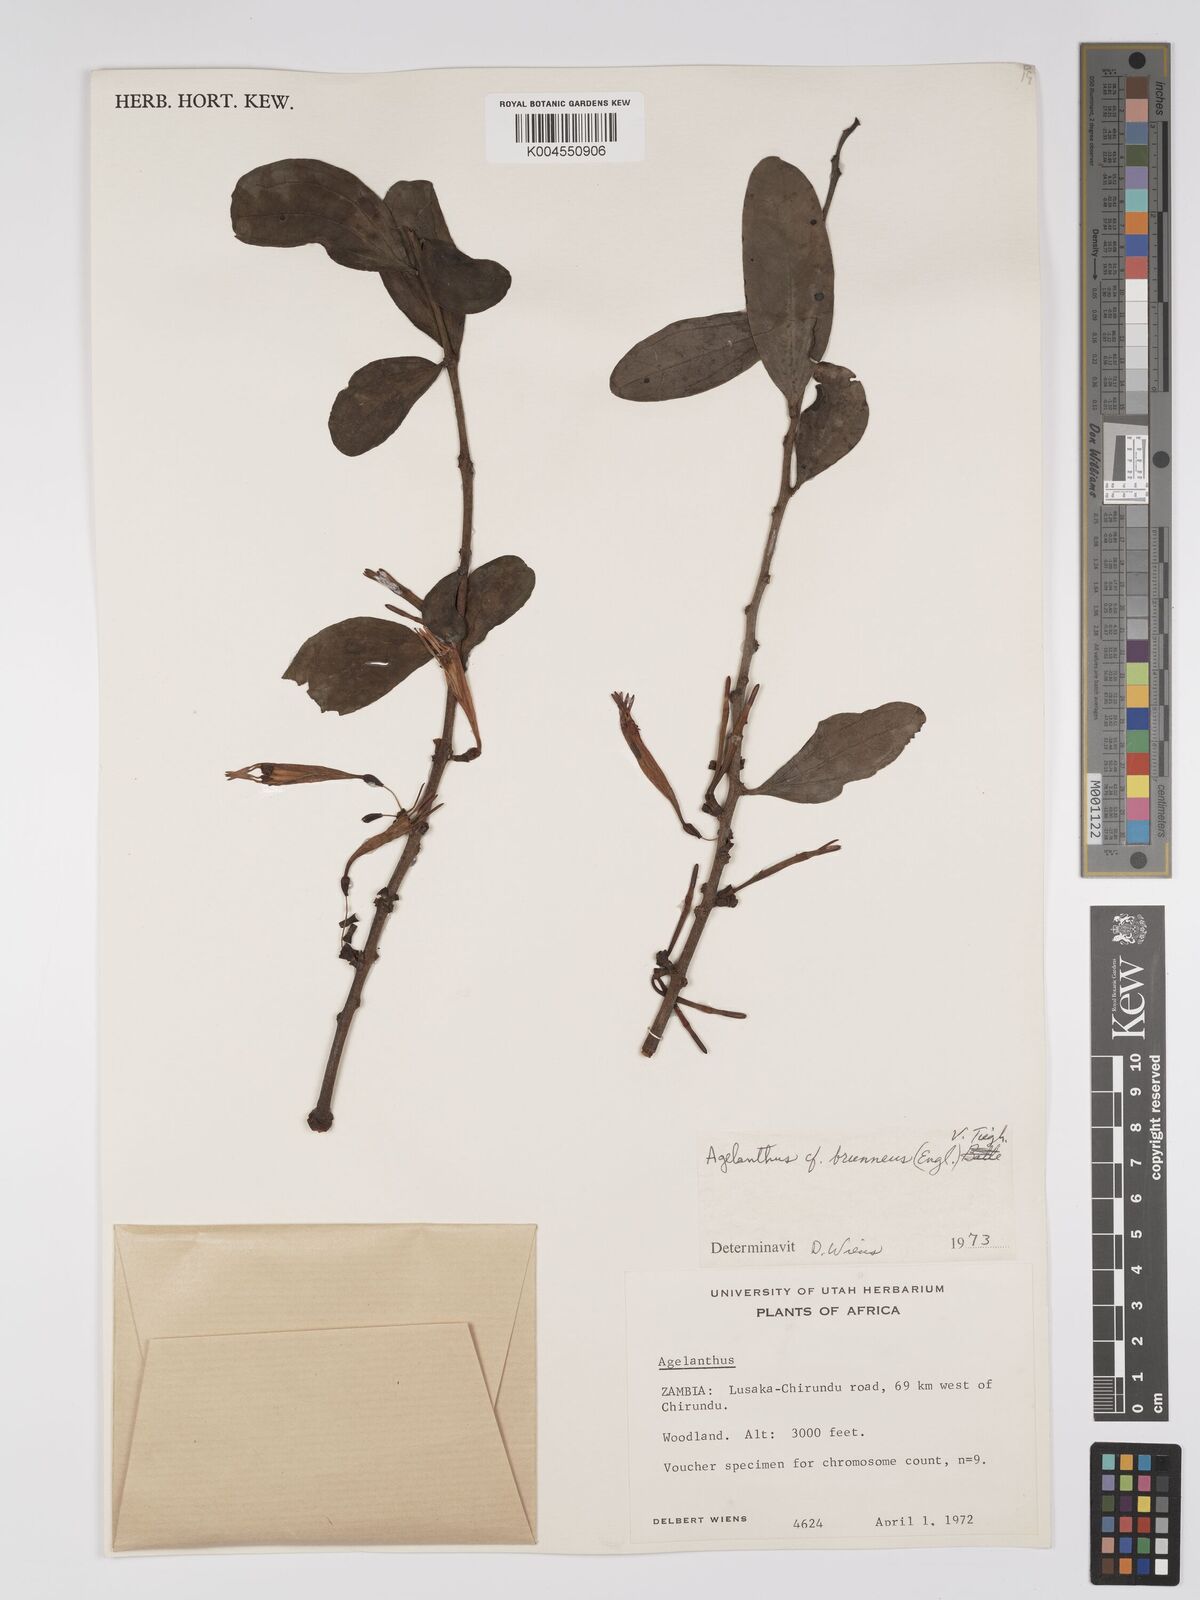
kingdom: Plantae
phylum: Tracheophyta
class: Magnoliopsida
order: Santalales
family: Loranthaceae
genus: Agelanthus
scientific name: Agelanthus zizyphifolius
